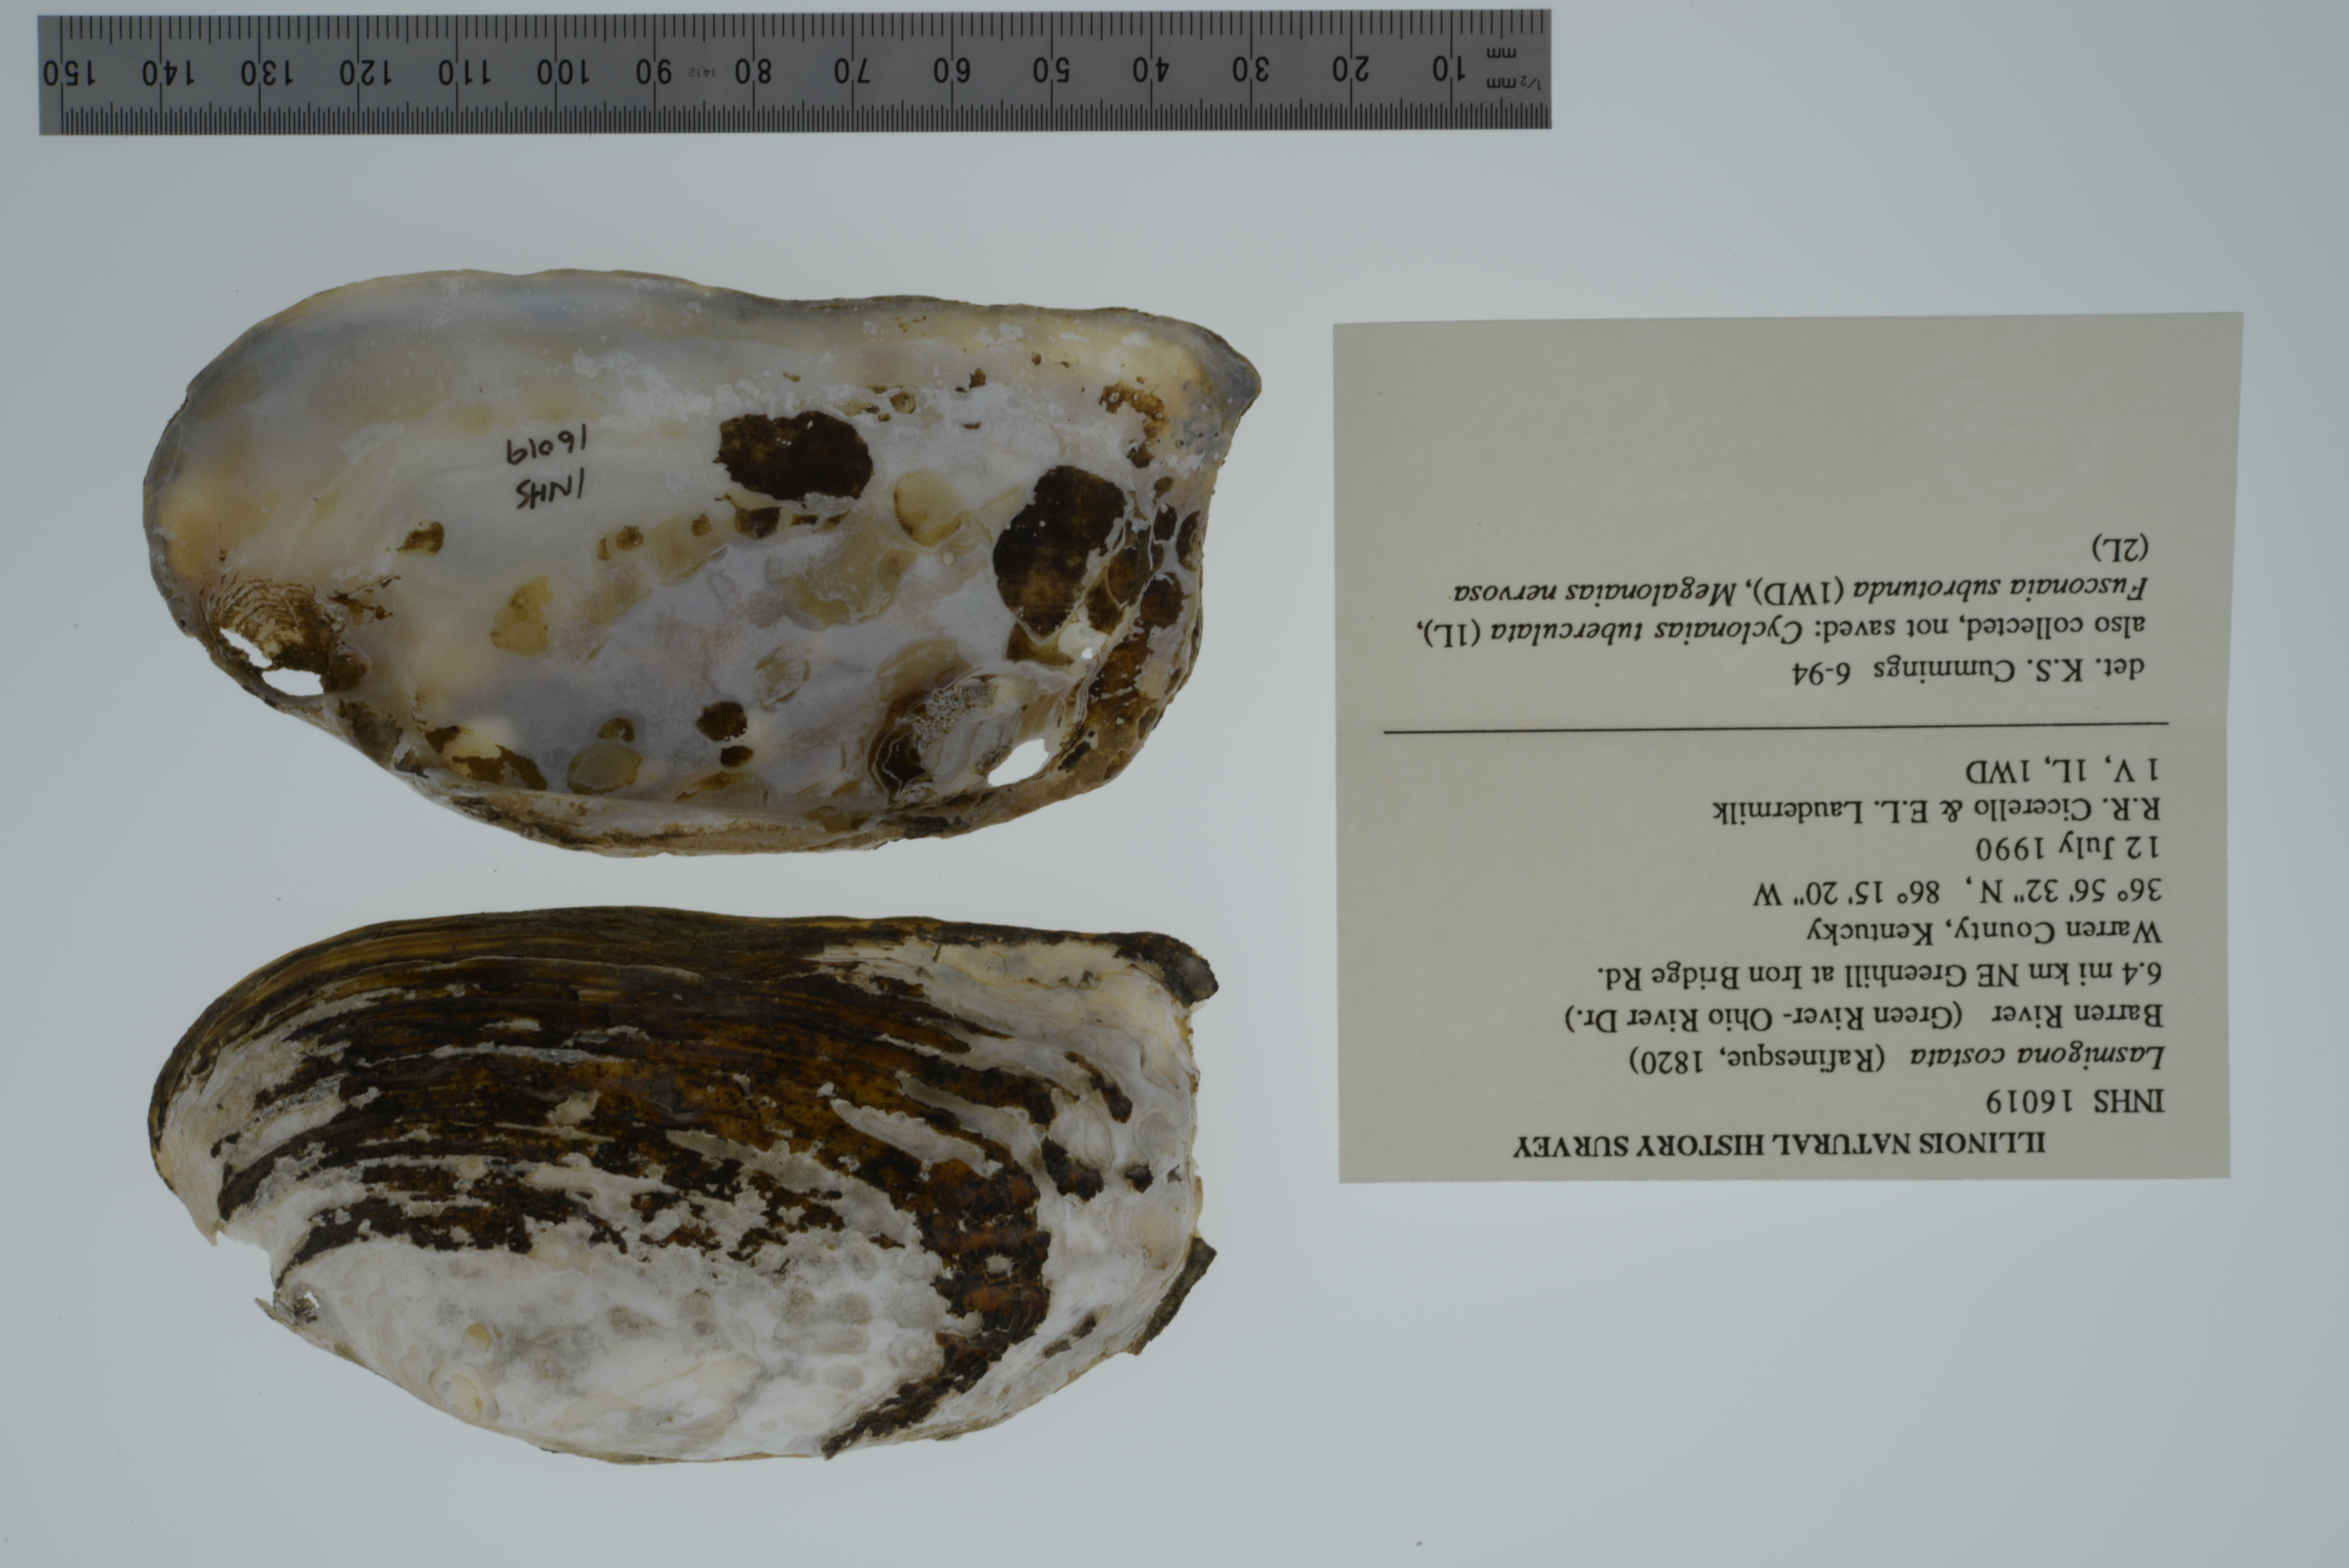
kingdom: Animalia
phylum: Mollusca
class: Bivalvia
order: Unionida
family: Unionidae
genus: Lasmigona
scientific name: Lasmigona costata
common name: Flutedshell
